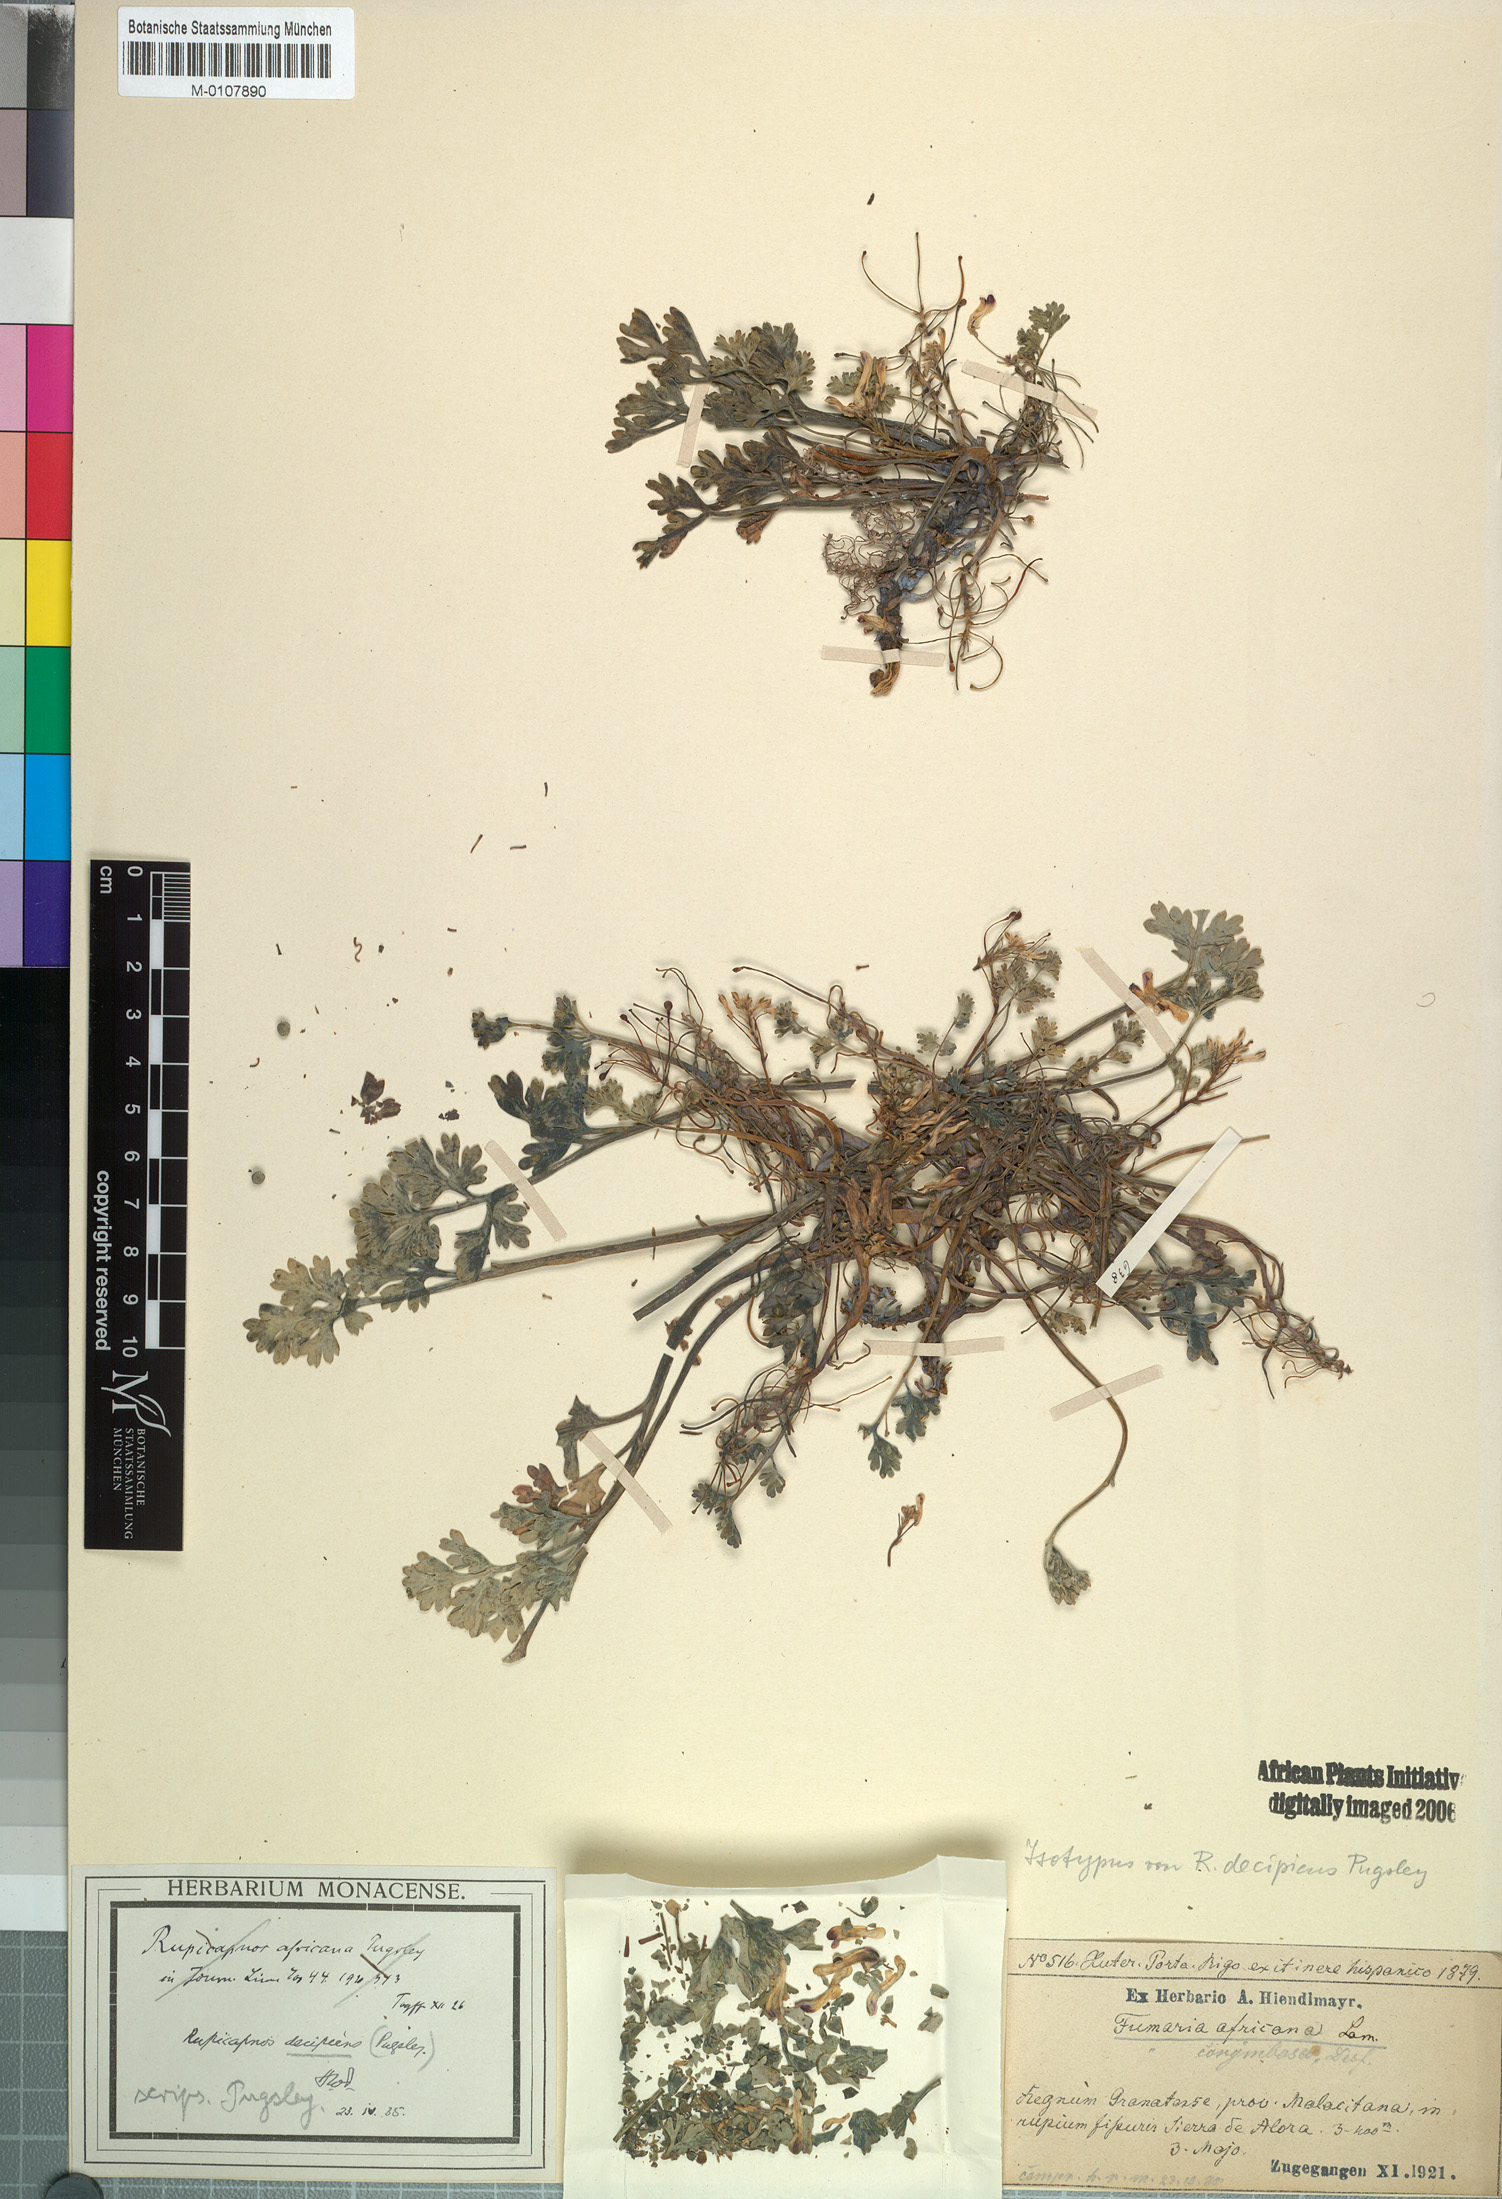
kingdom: Plantae
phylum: Tracheophyta
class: Magnoliopsida
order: Ranunculales
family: Papaveraceae
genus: Rupicapnos
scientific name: Rupicapnos africana
